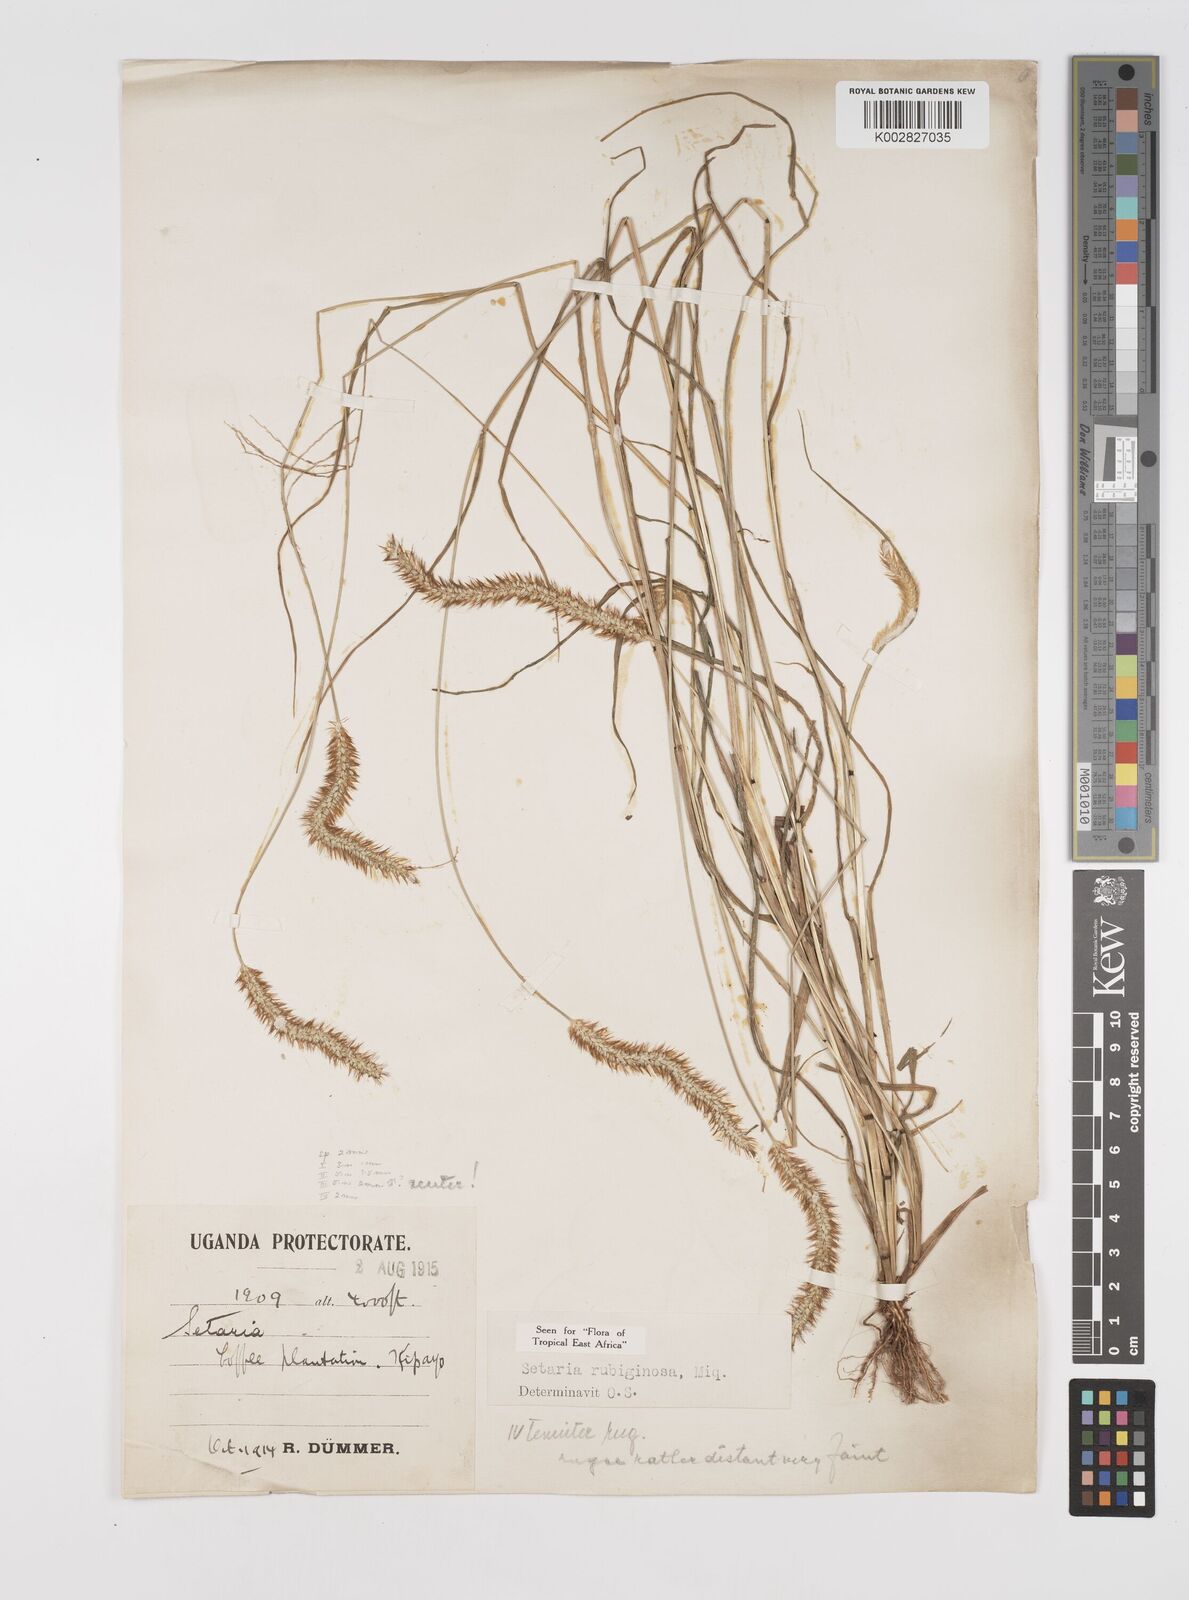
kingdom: Plantae
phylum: Tracheophyta
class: Liliopsida
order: Poales
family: Poaceae
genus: Setaria
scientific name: Setaria pumila
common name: Yellow bristle-grass
